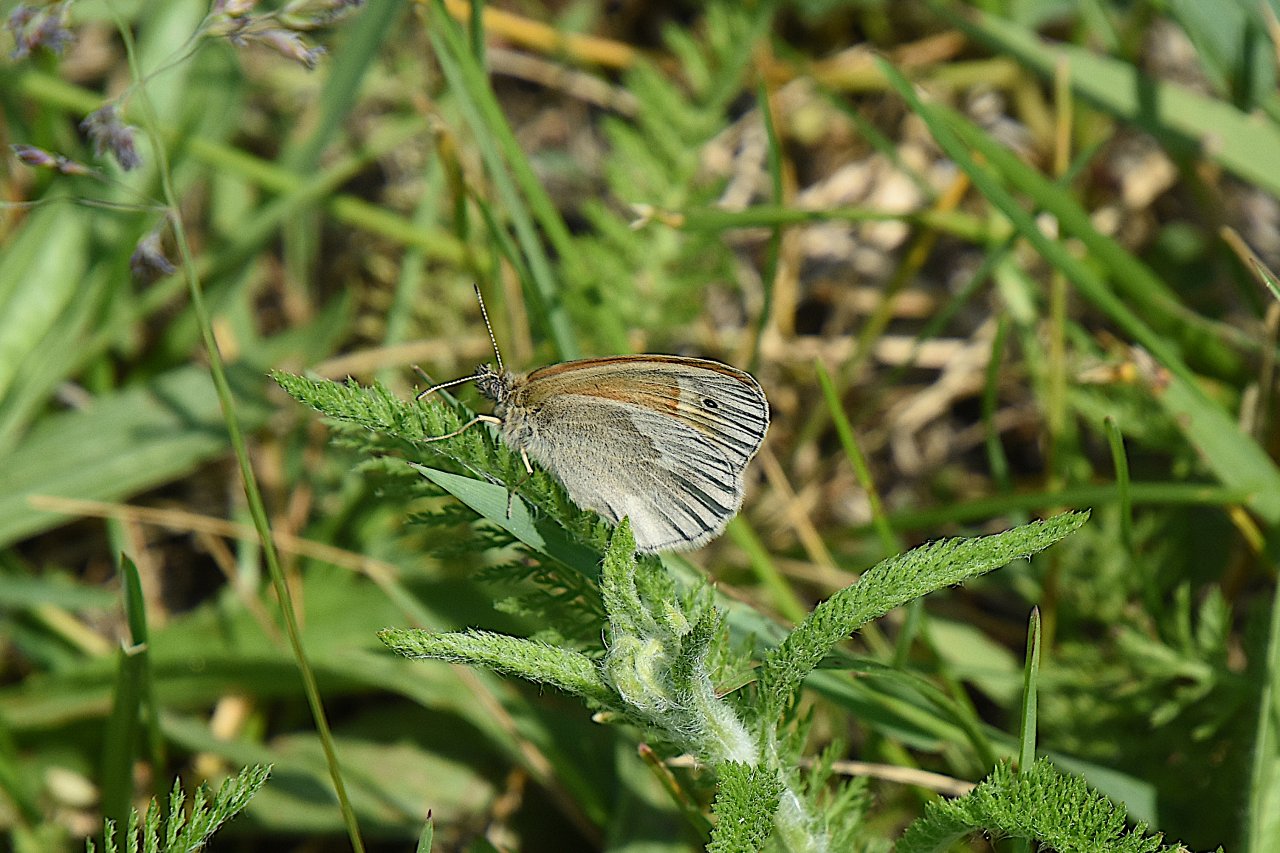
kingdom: Animalia
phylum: Arthropoda
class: Insecta
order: Lepidoptera
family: Nymphalidae
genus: Coenonympha
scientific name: Coenonympha tullia
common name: Large Heath
